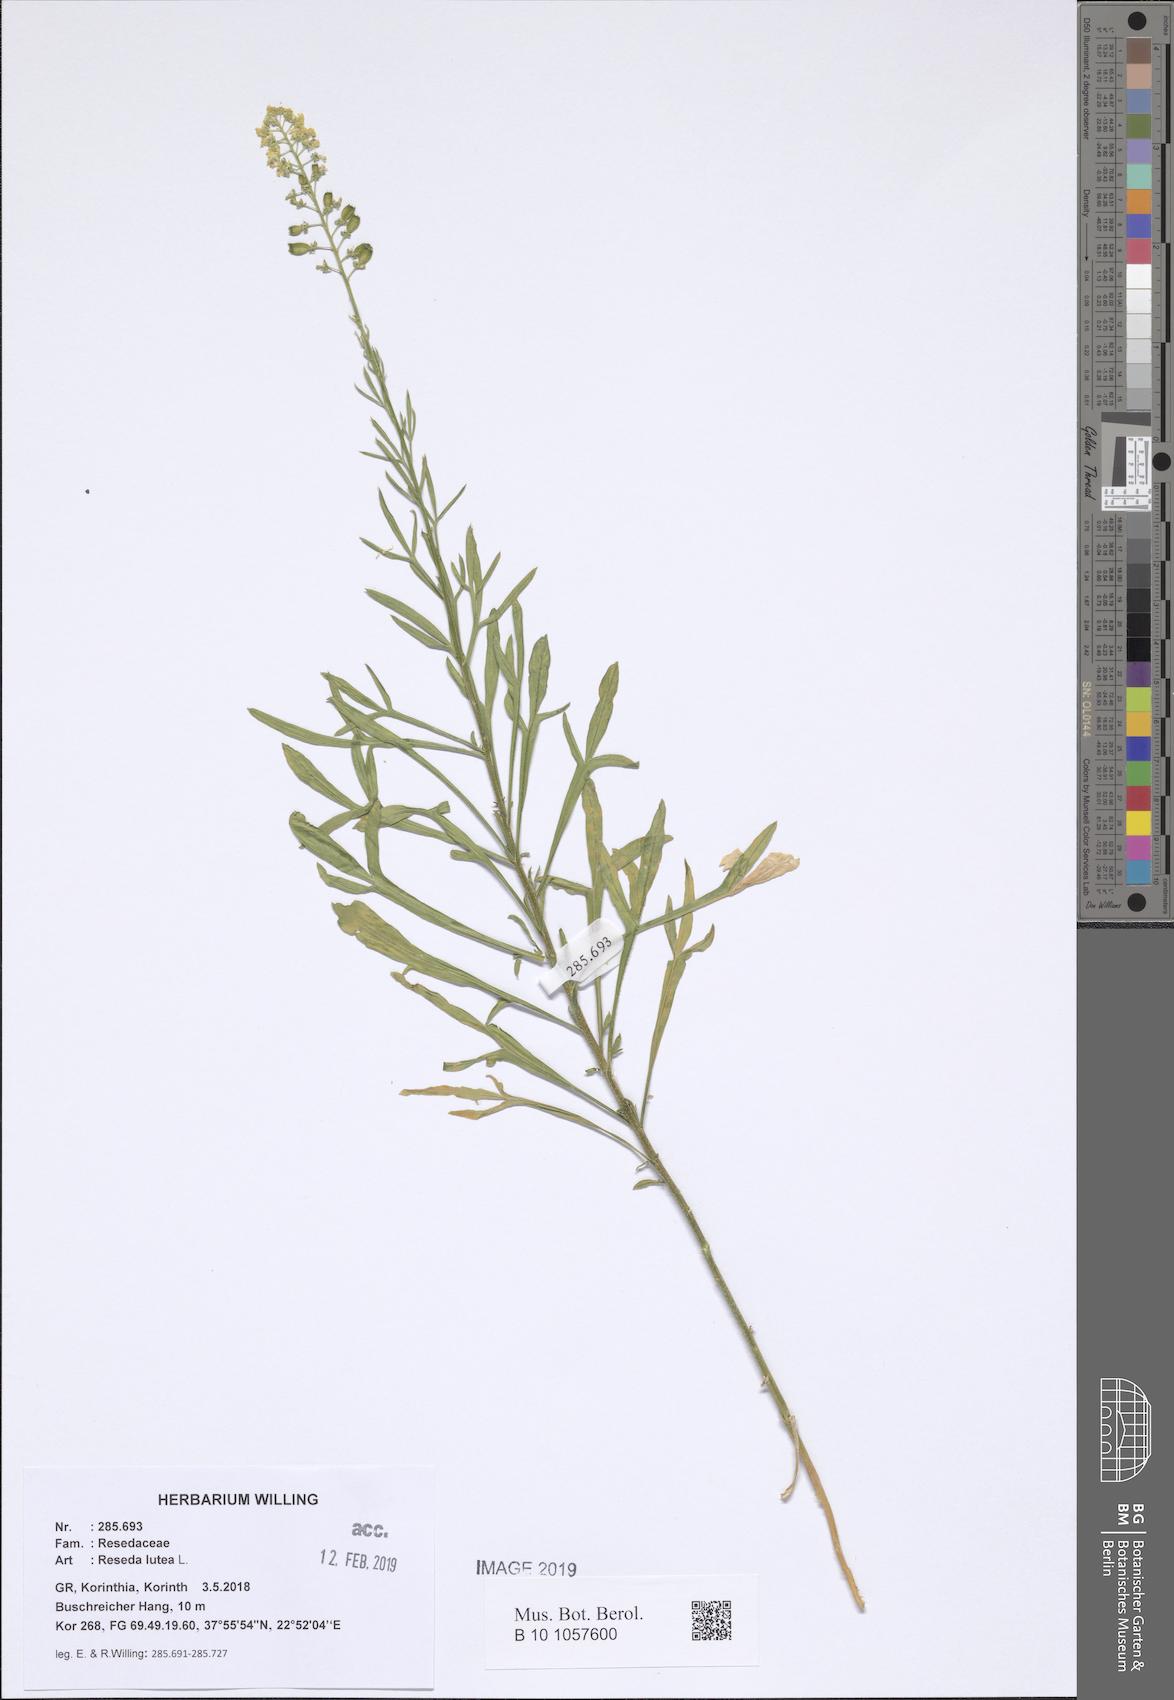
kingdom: Plantae
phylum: Tracheophyta
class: Magnoliopsida
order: Brassicales
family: Resedaceae
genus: Reseda
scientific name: Reseda lutea
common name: Wild mignonette
